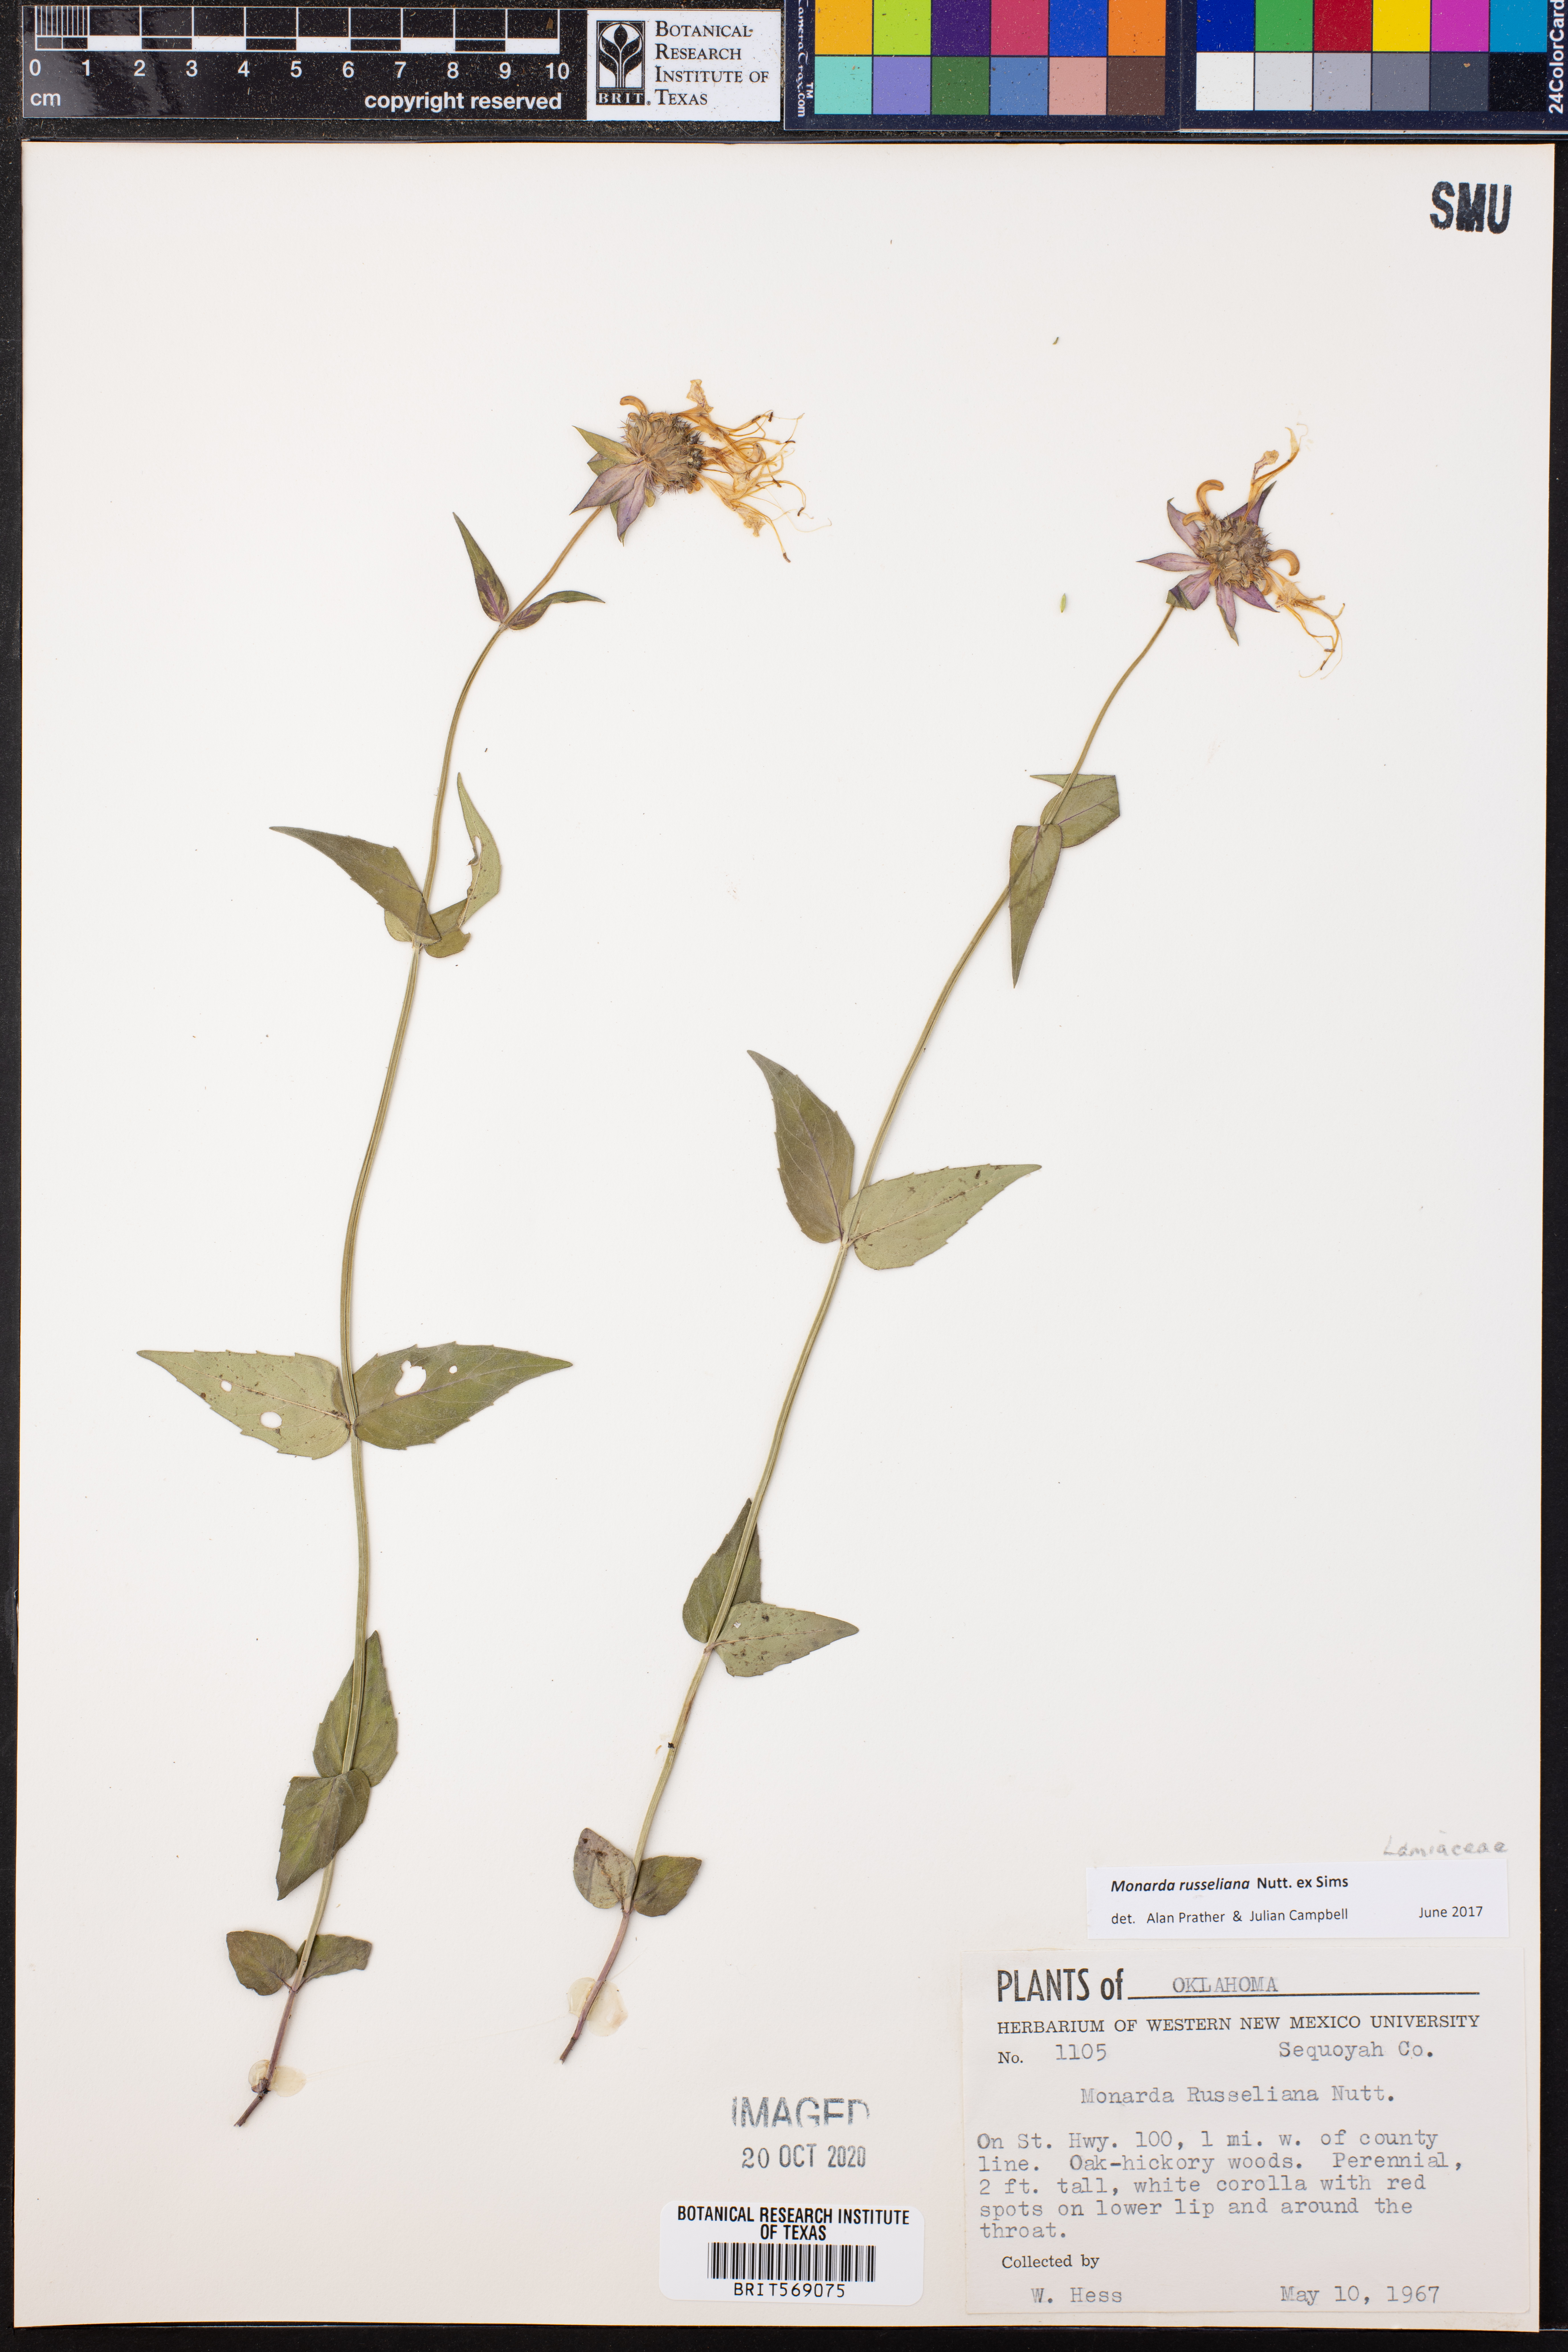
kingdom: Plantae
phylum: Tracheophyta
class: Magnoliopsida
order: Lamiales
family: Lamiaceae
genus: Monarda
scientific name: Monarda russeliana
